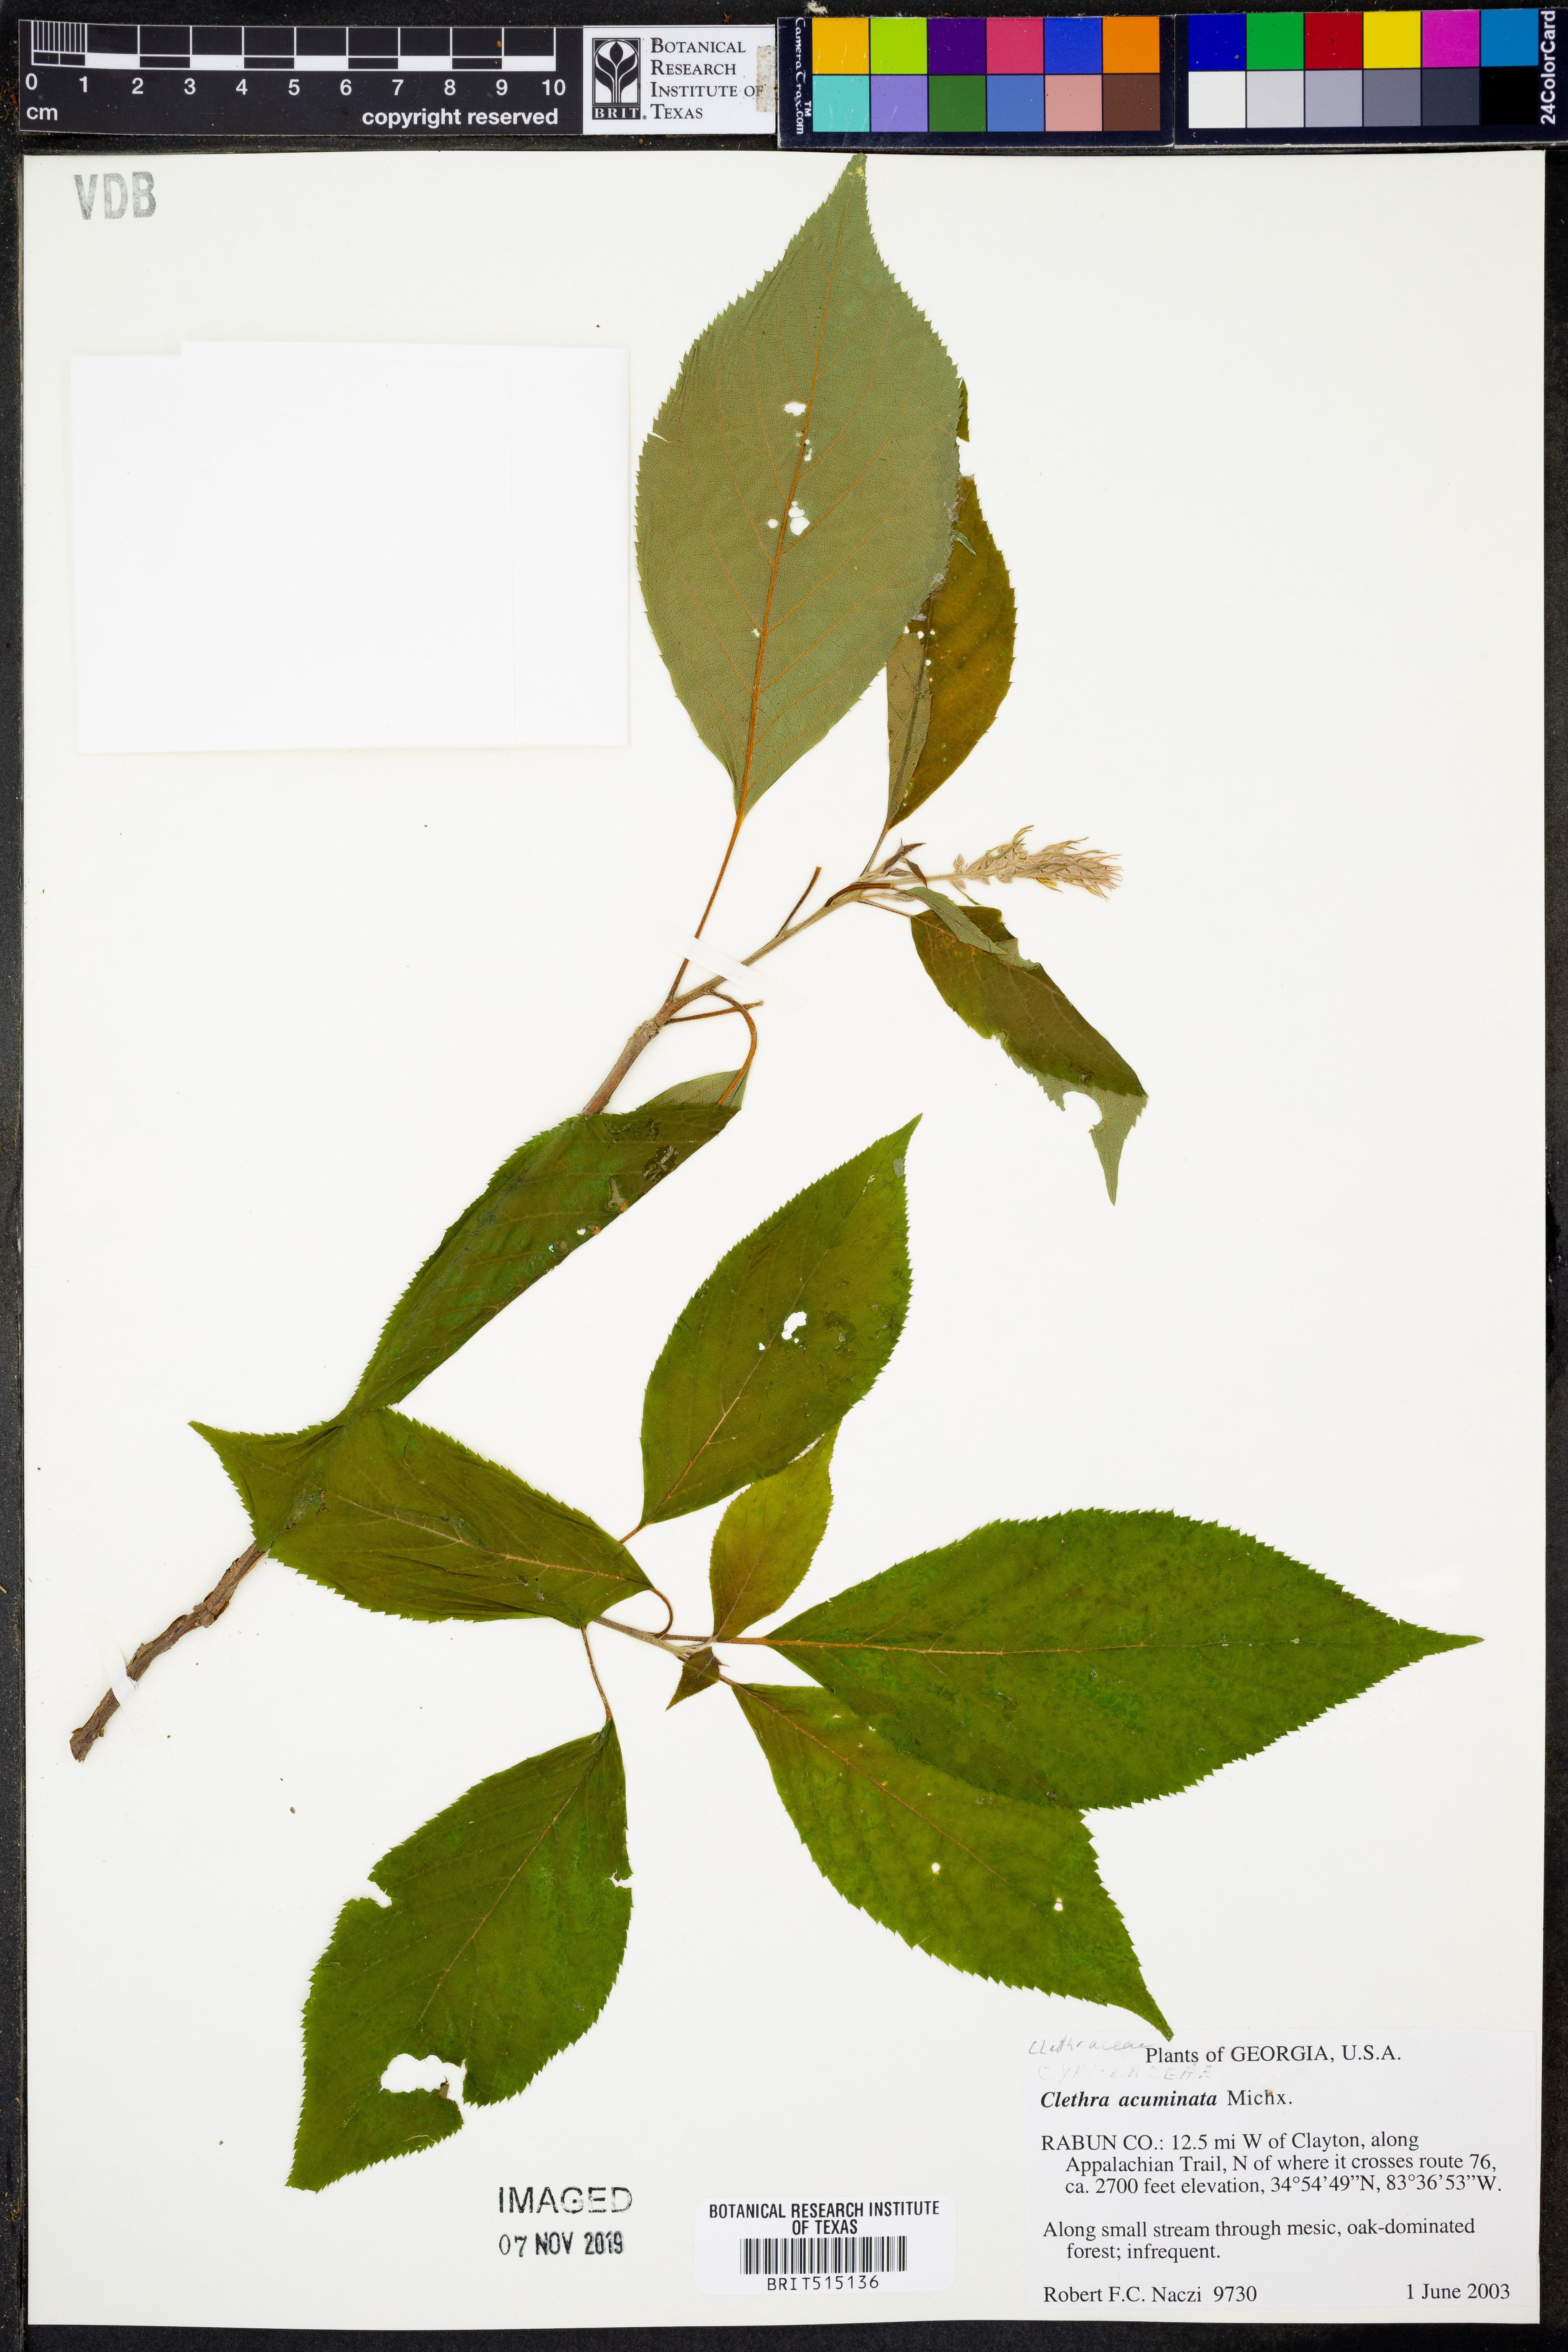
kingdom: Plantae
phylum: Tracheophyta
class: Magnoliopsida
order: Ericales
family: Clethraceae
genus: Clethra
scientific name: Clethra acuminata
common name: Mountain sweet pepperbush
